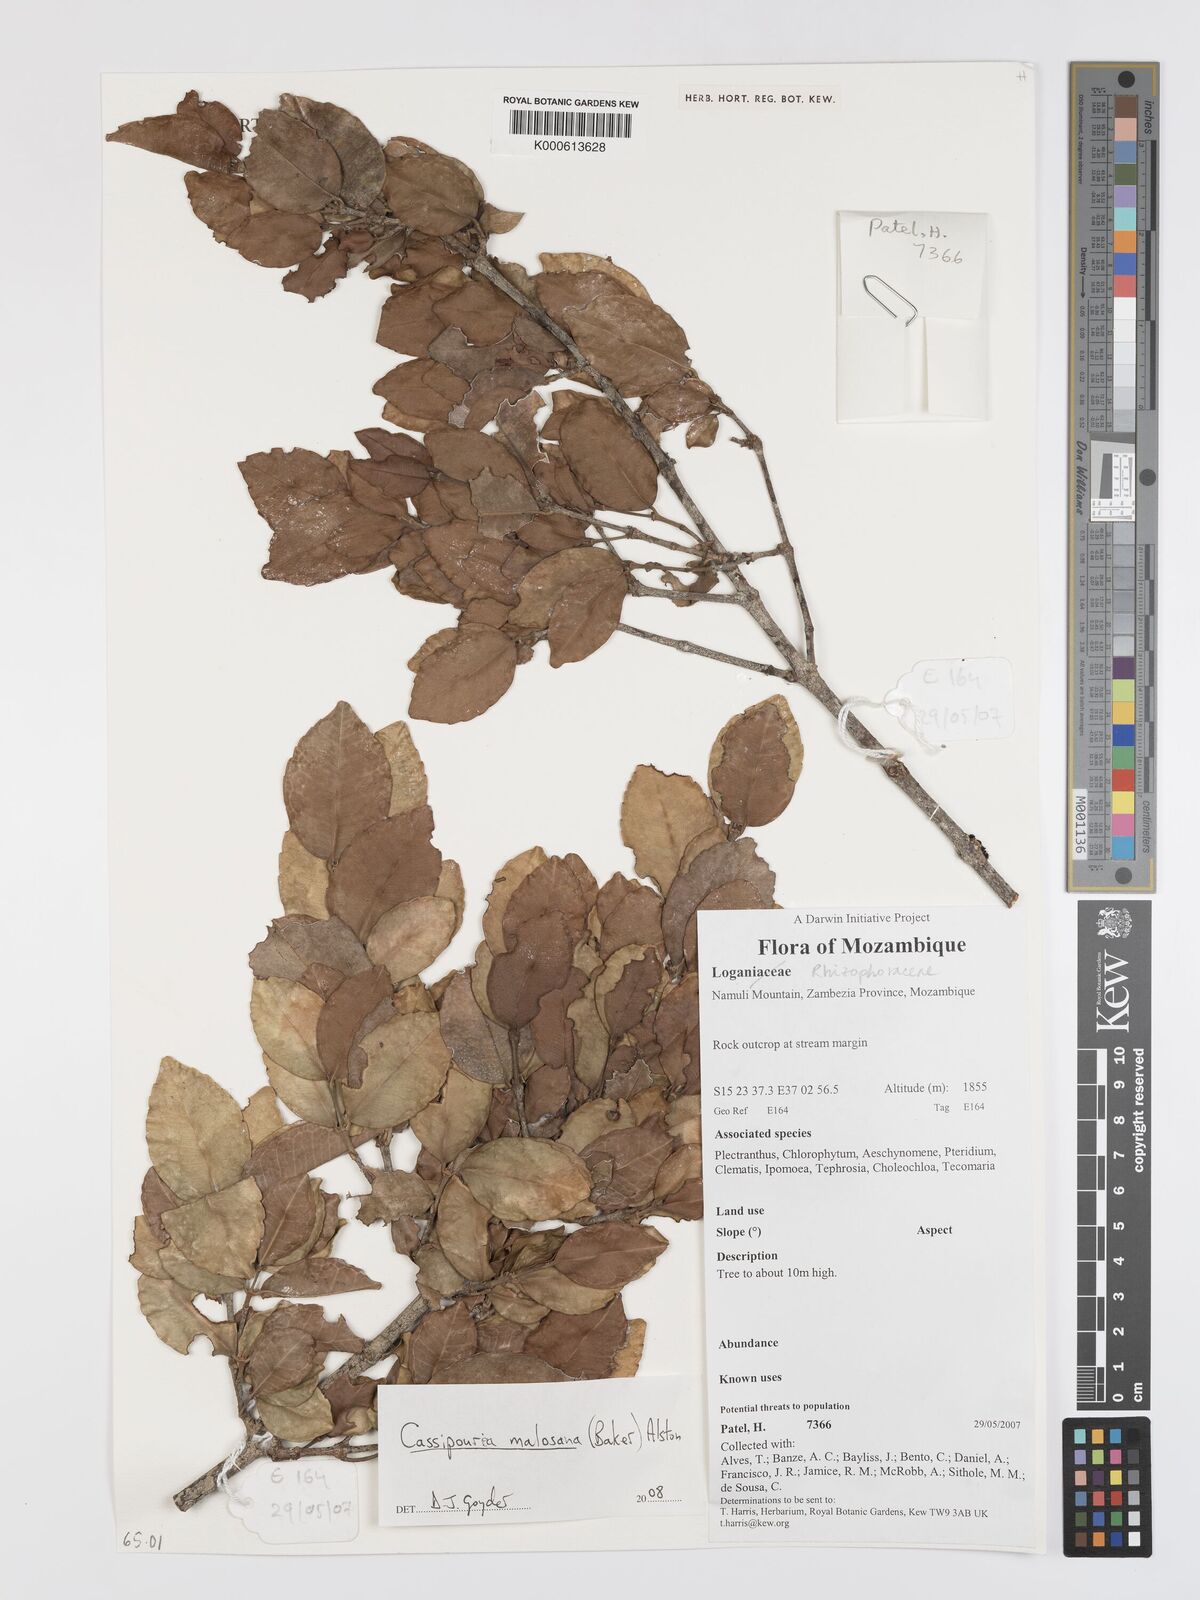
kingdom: Plantae
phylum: Tracheophyta
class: Magnoliopsida
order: Malpighiales
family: Rhizophoraceae
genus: Cassipourea
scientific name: Cassipourea malosana
